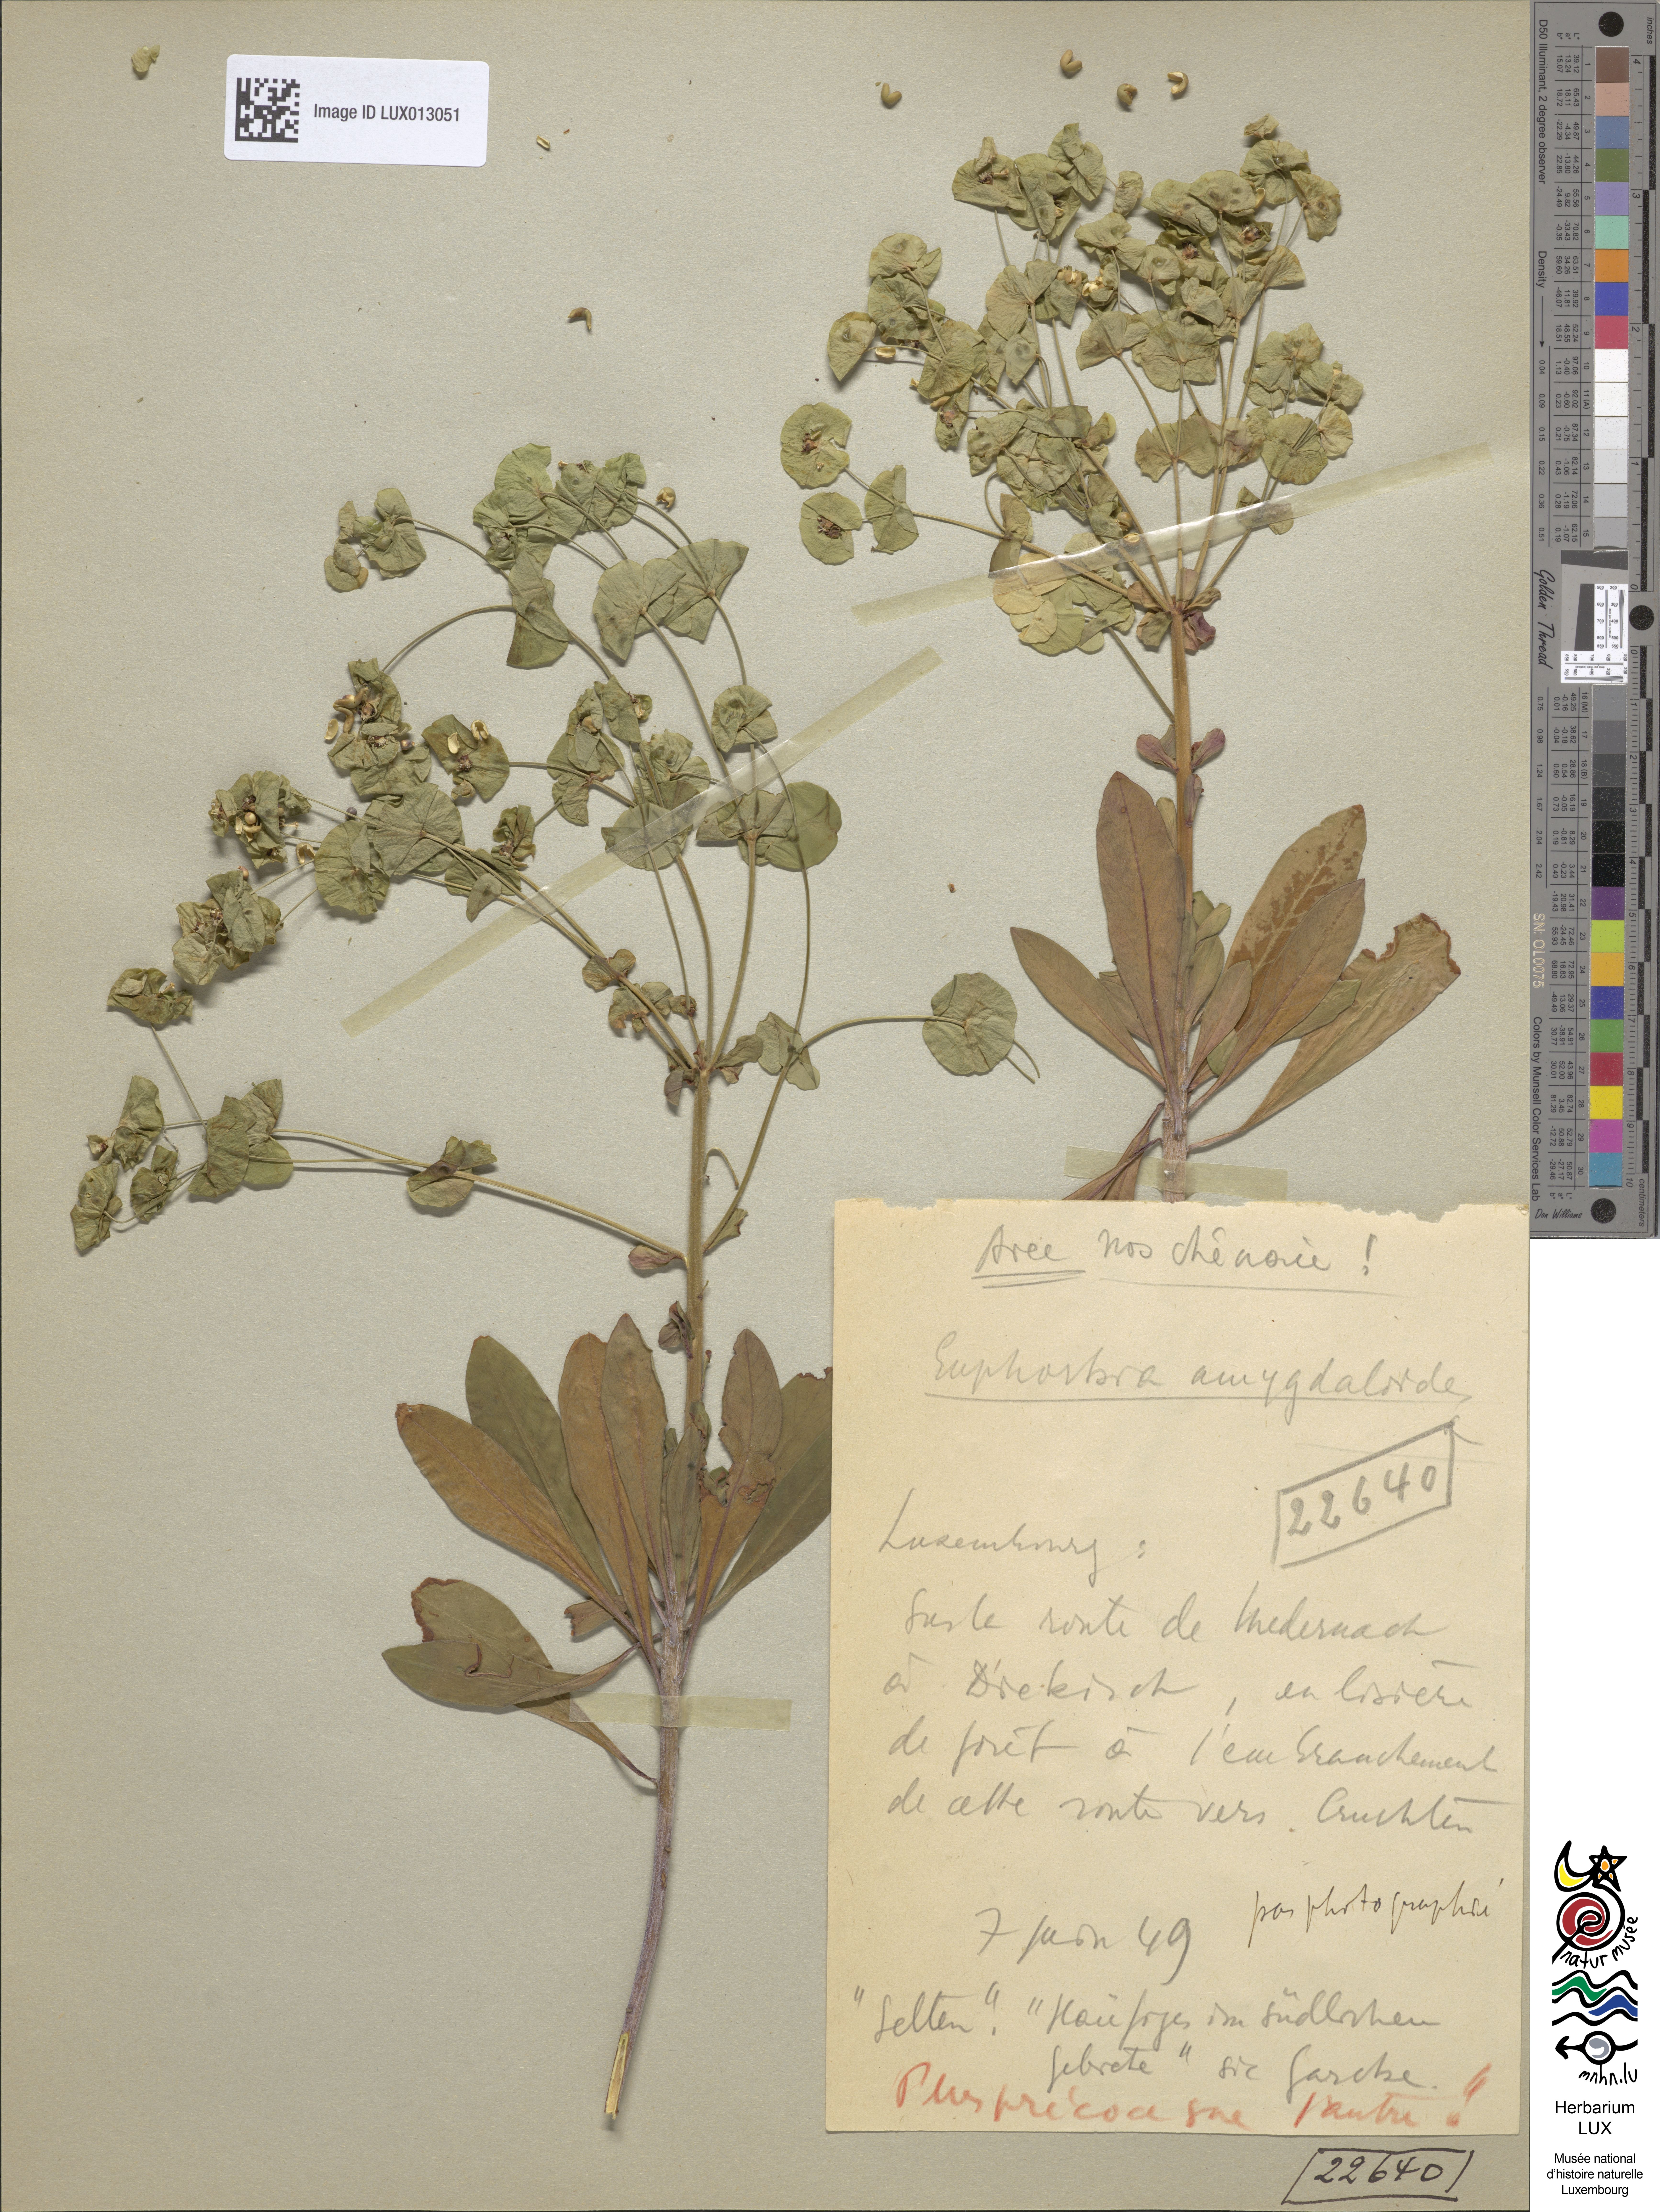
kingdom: Plantae
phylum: Tracheophyta
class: Magnoliopsida
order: Malpighiales
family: Euphorbiaceae
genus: Euphorbia
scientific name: Euphorbia amygdaloides
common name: Wood spurge
